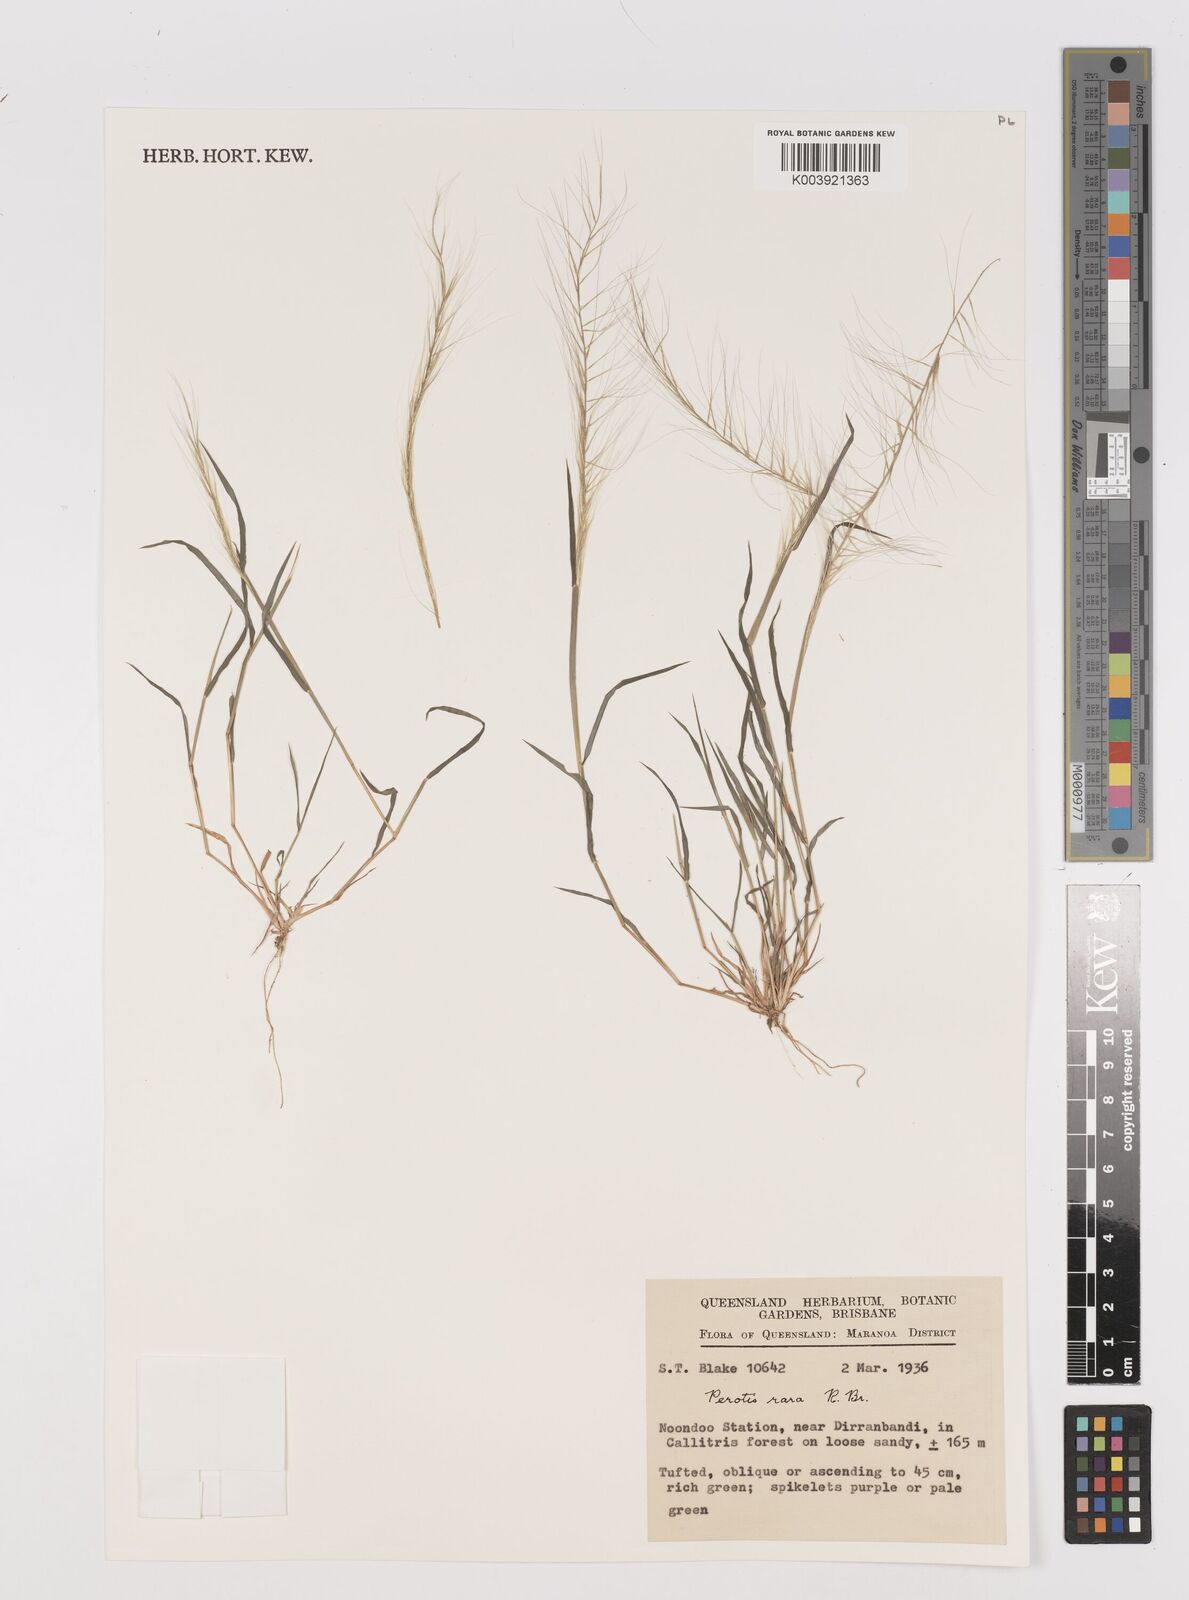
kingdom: Plantae
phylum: Tracheophyta
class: Liliopsida
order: Poales
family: Poaceae
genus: Perotis
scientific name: Perotis rara
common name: Comet grass
